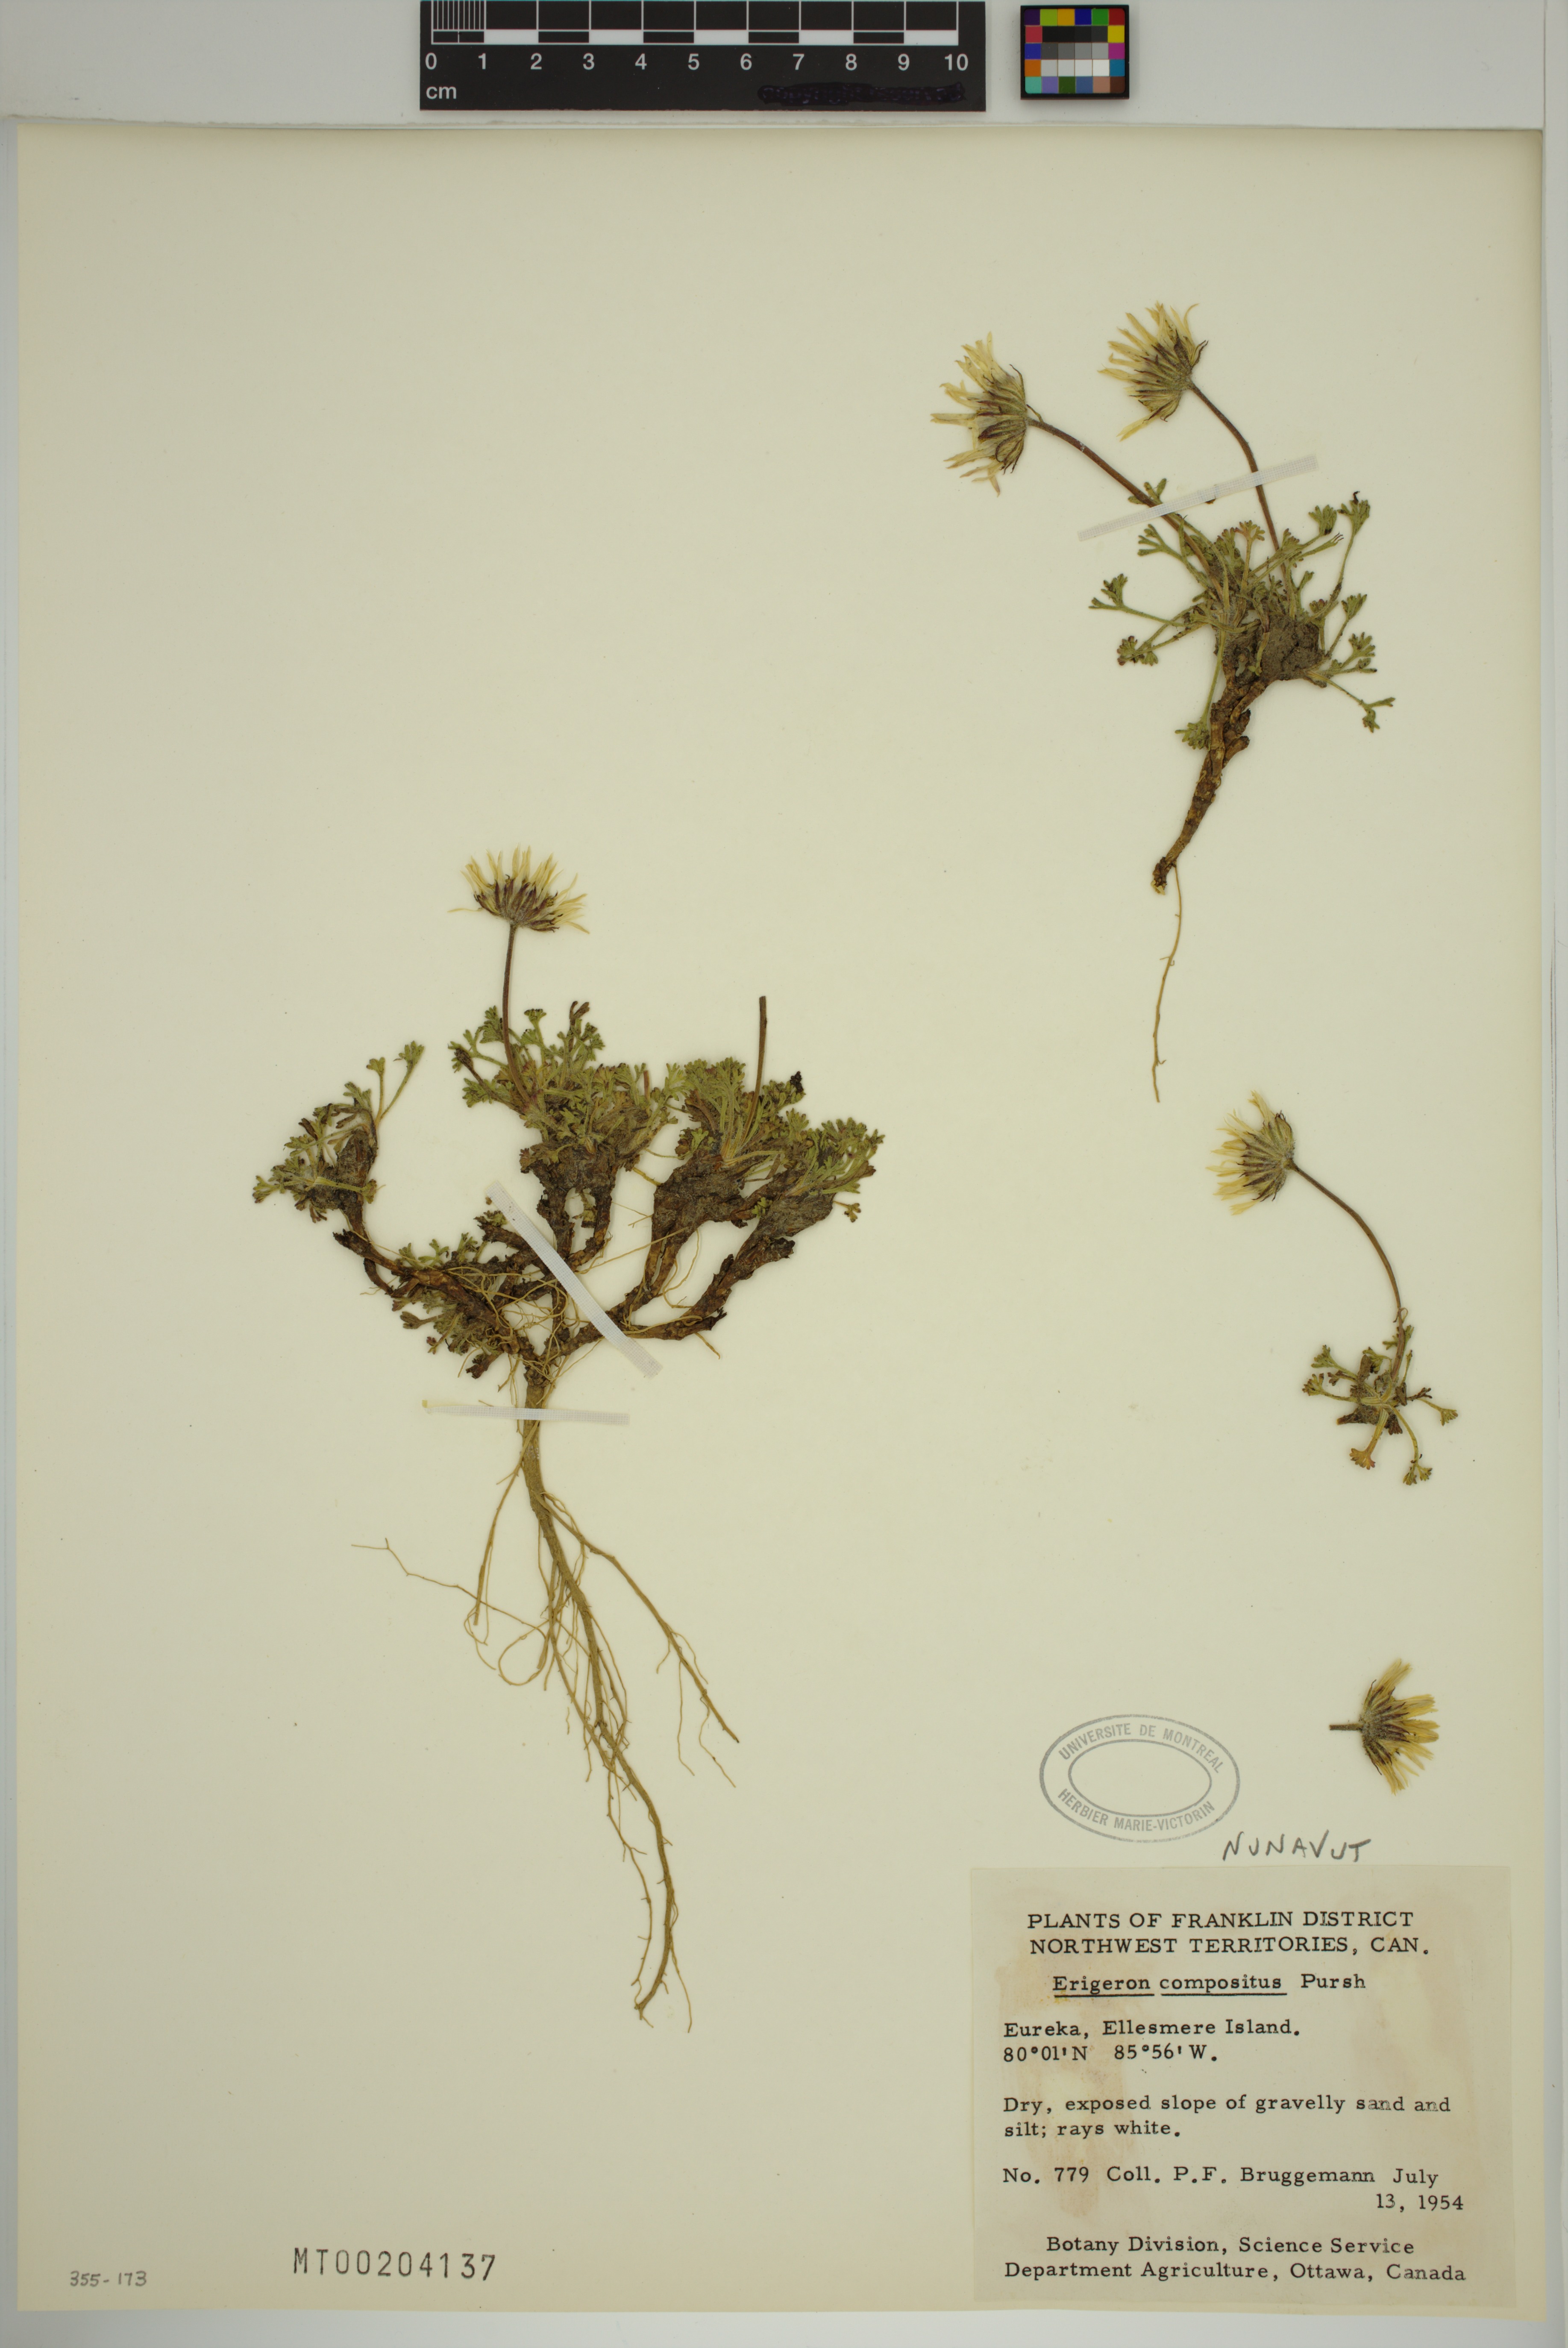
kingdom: Plantae
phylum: Tracheophyta
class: Magnoliopsida
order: Asterales
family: Asteraceae
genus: Erigeron
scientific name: Erigeron compositus
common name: Dwarf mountain fleabane
